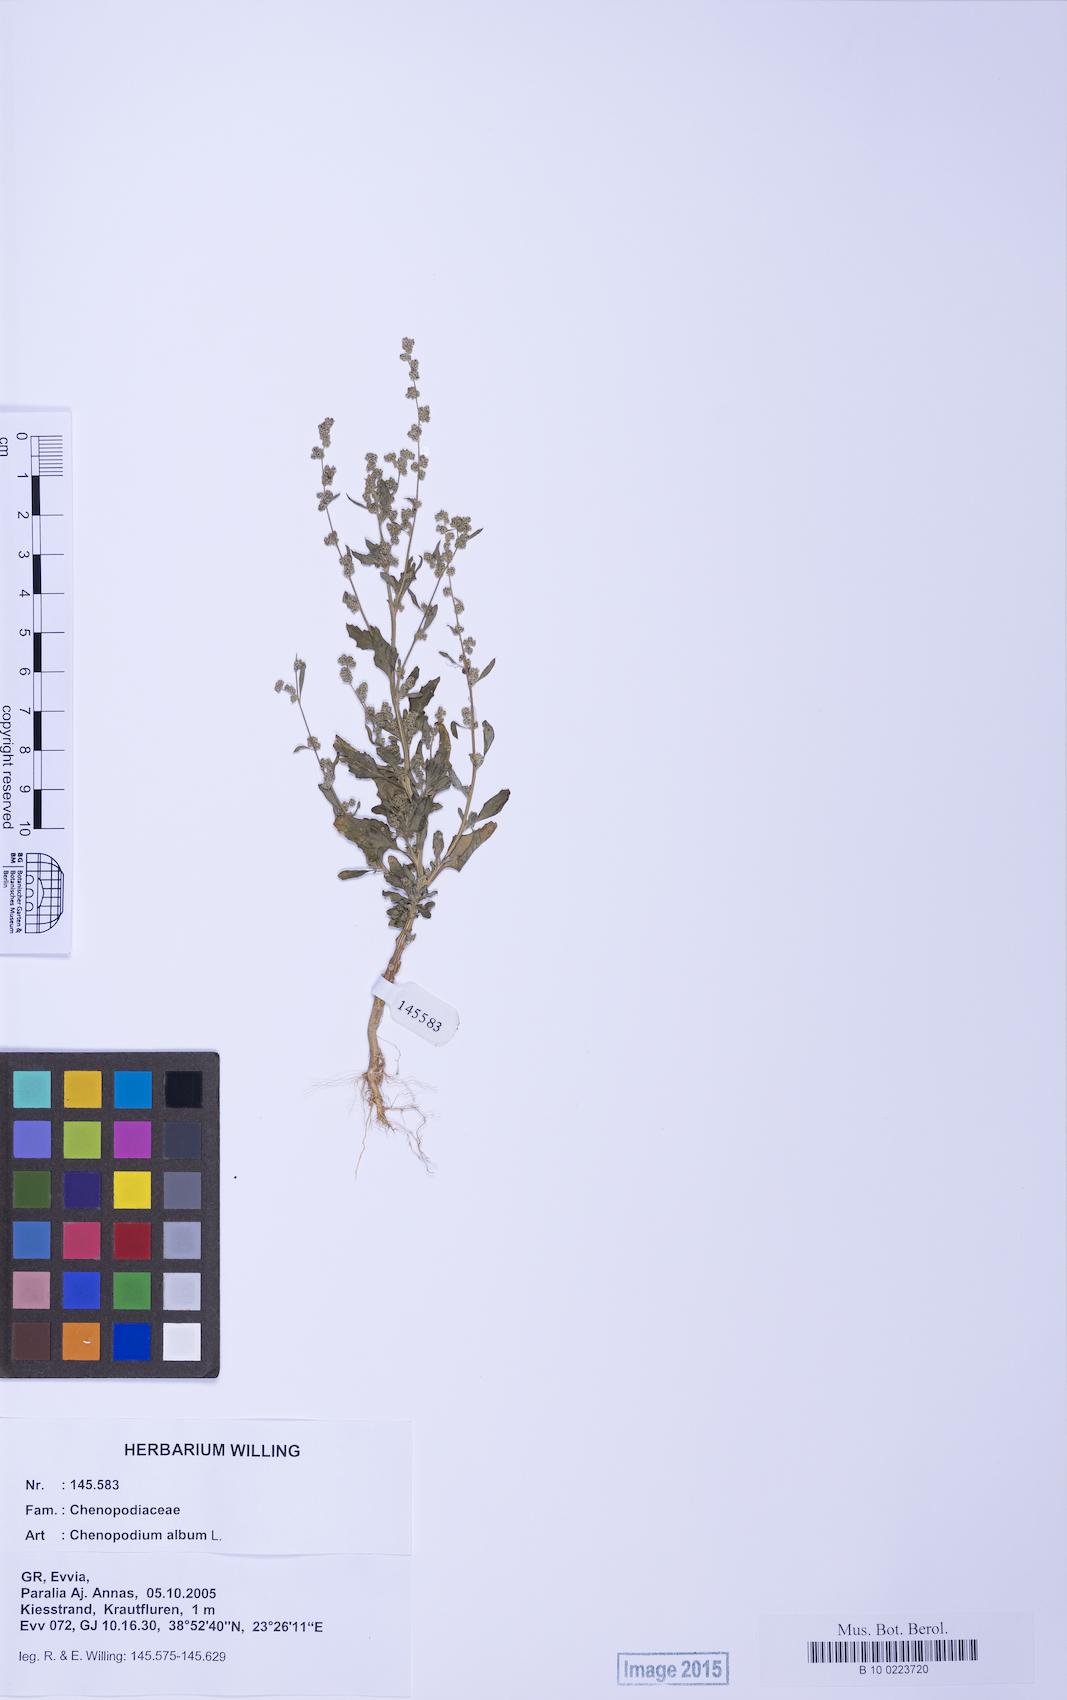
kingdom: Plantae
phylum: Tracheophyta
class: Magnoliopsida
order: Caryophyllales
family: Amaranthaceae
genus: Chenopodium
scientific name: Chenopodium striatiforme
